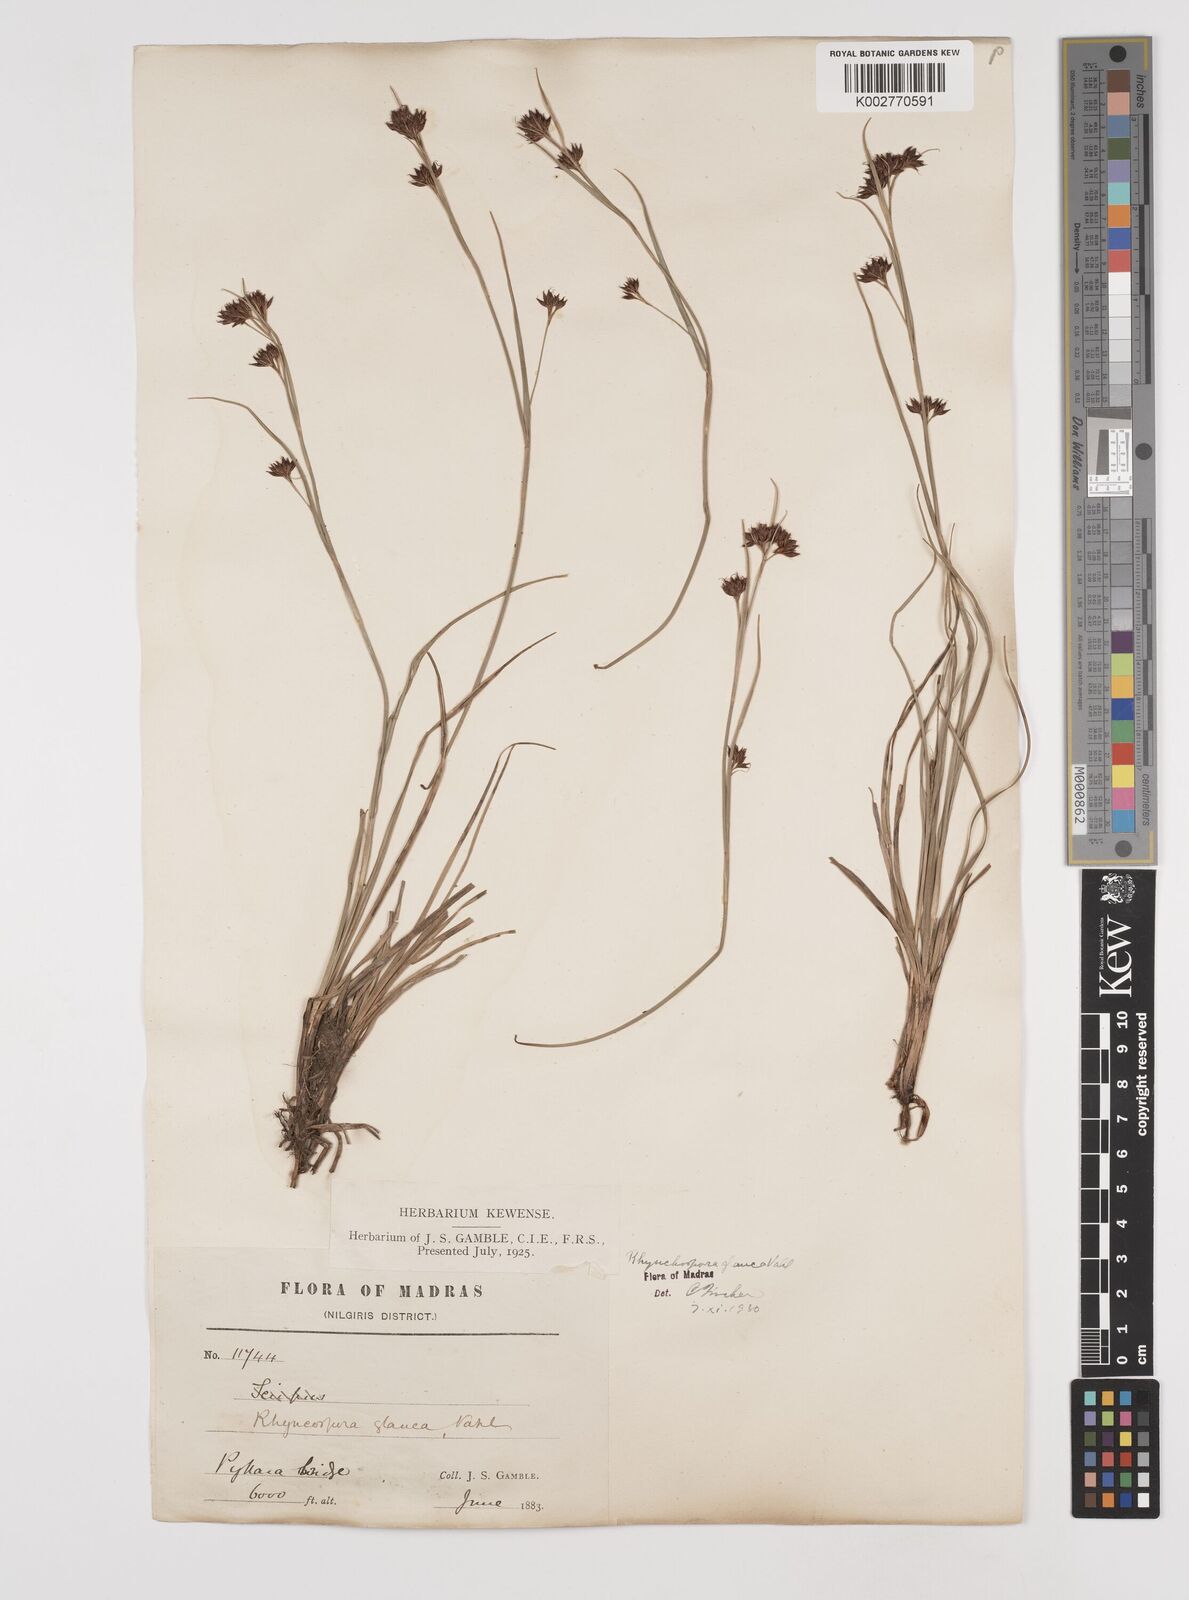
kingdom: Plantae
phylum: Tracheophyta
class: Liliopsida
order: Poales
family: Cyperaceae
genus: Rhynchospora
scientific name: Rhynchospora rugosa
